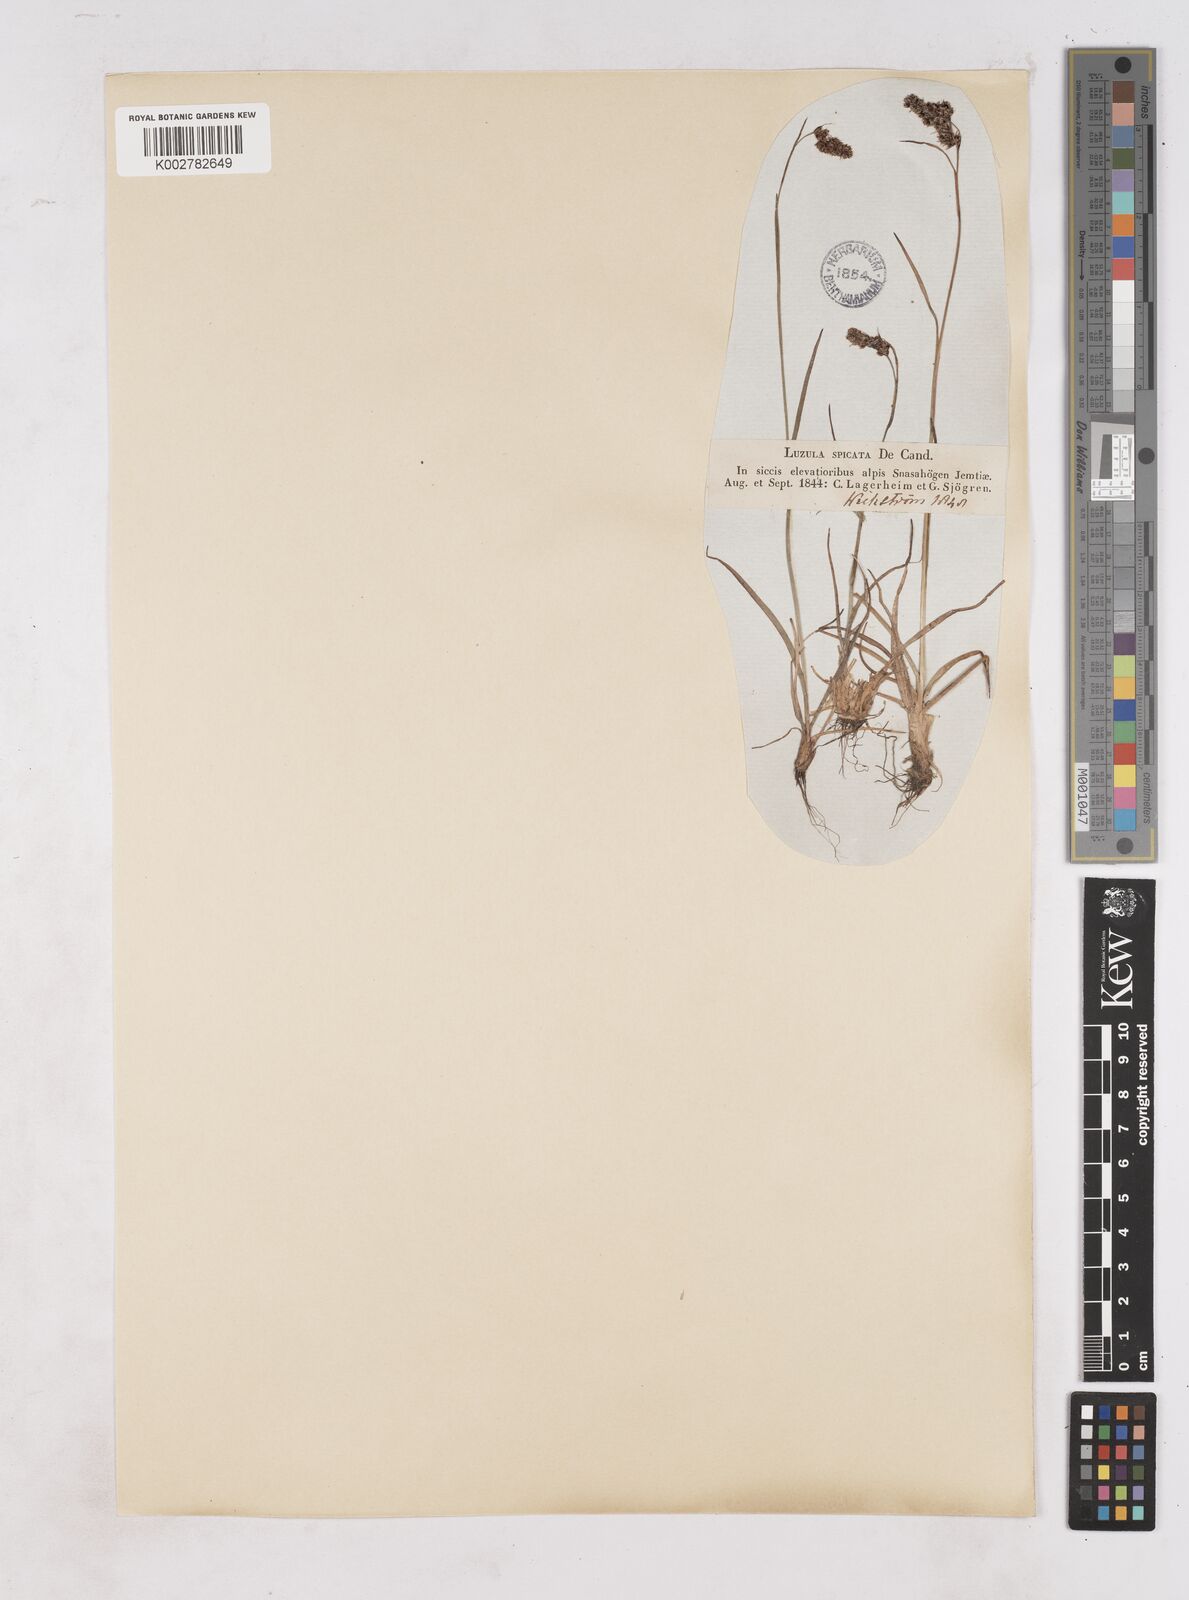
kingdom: Plantae
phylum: Tracheophyta
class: Liliopsida
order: Poales
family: Juncaceae
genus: Luzula
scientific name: Luzula spicata
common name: Spiked wood-rush
